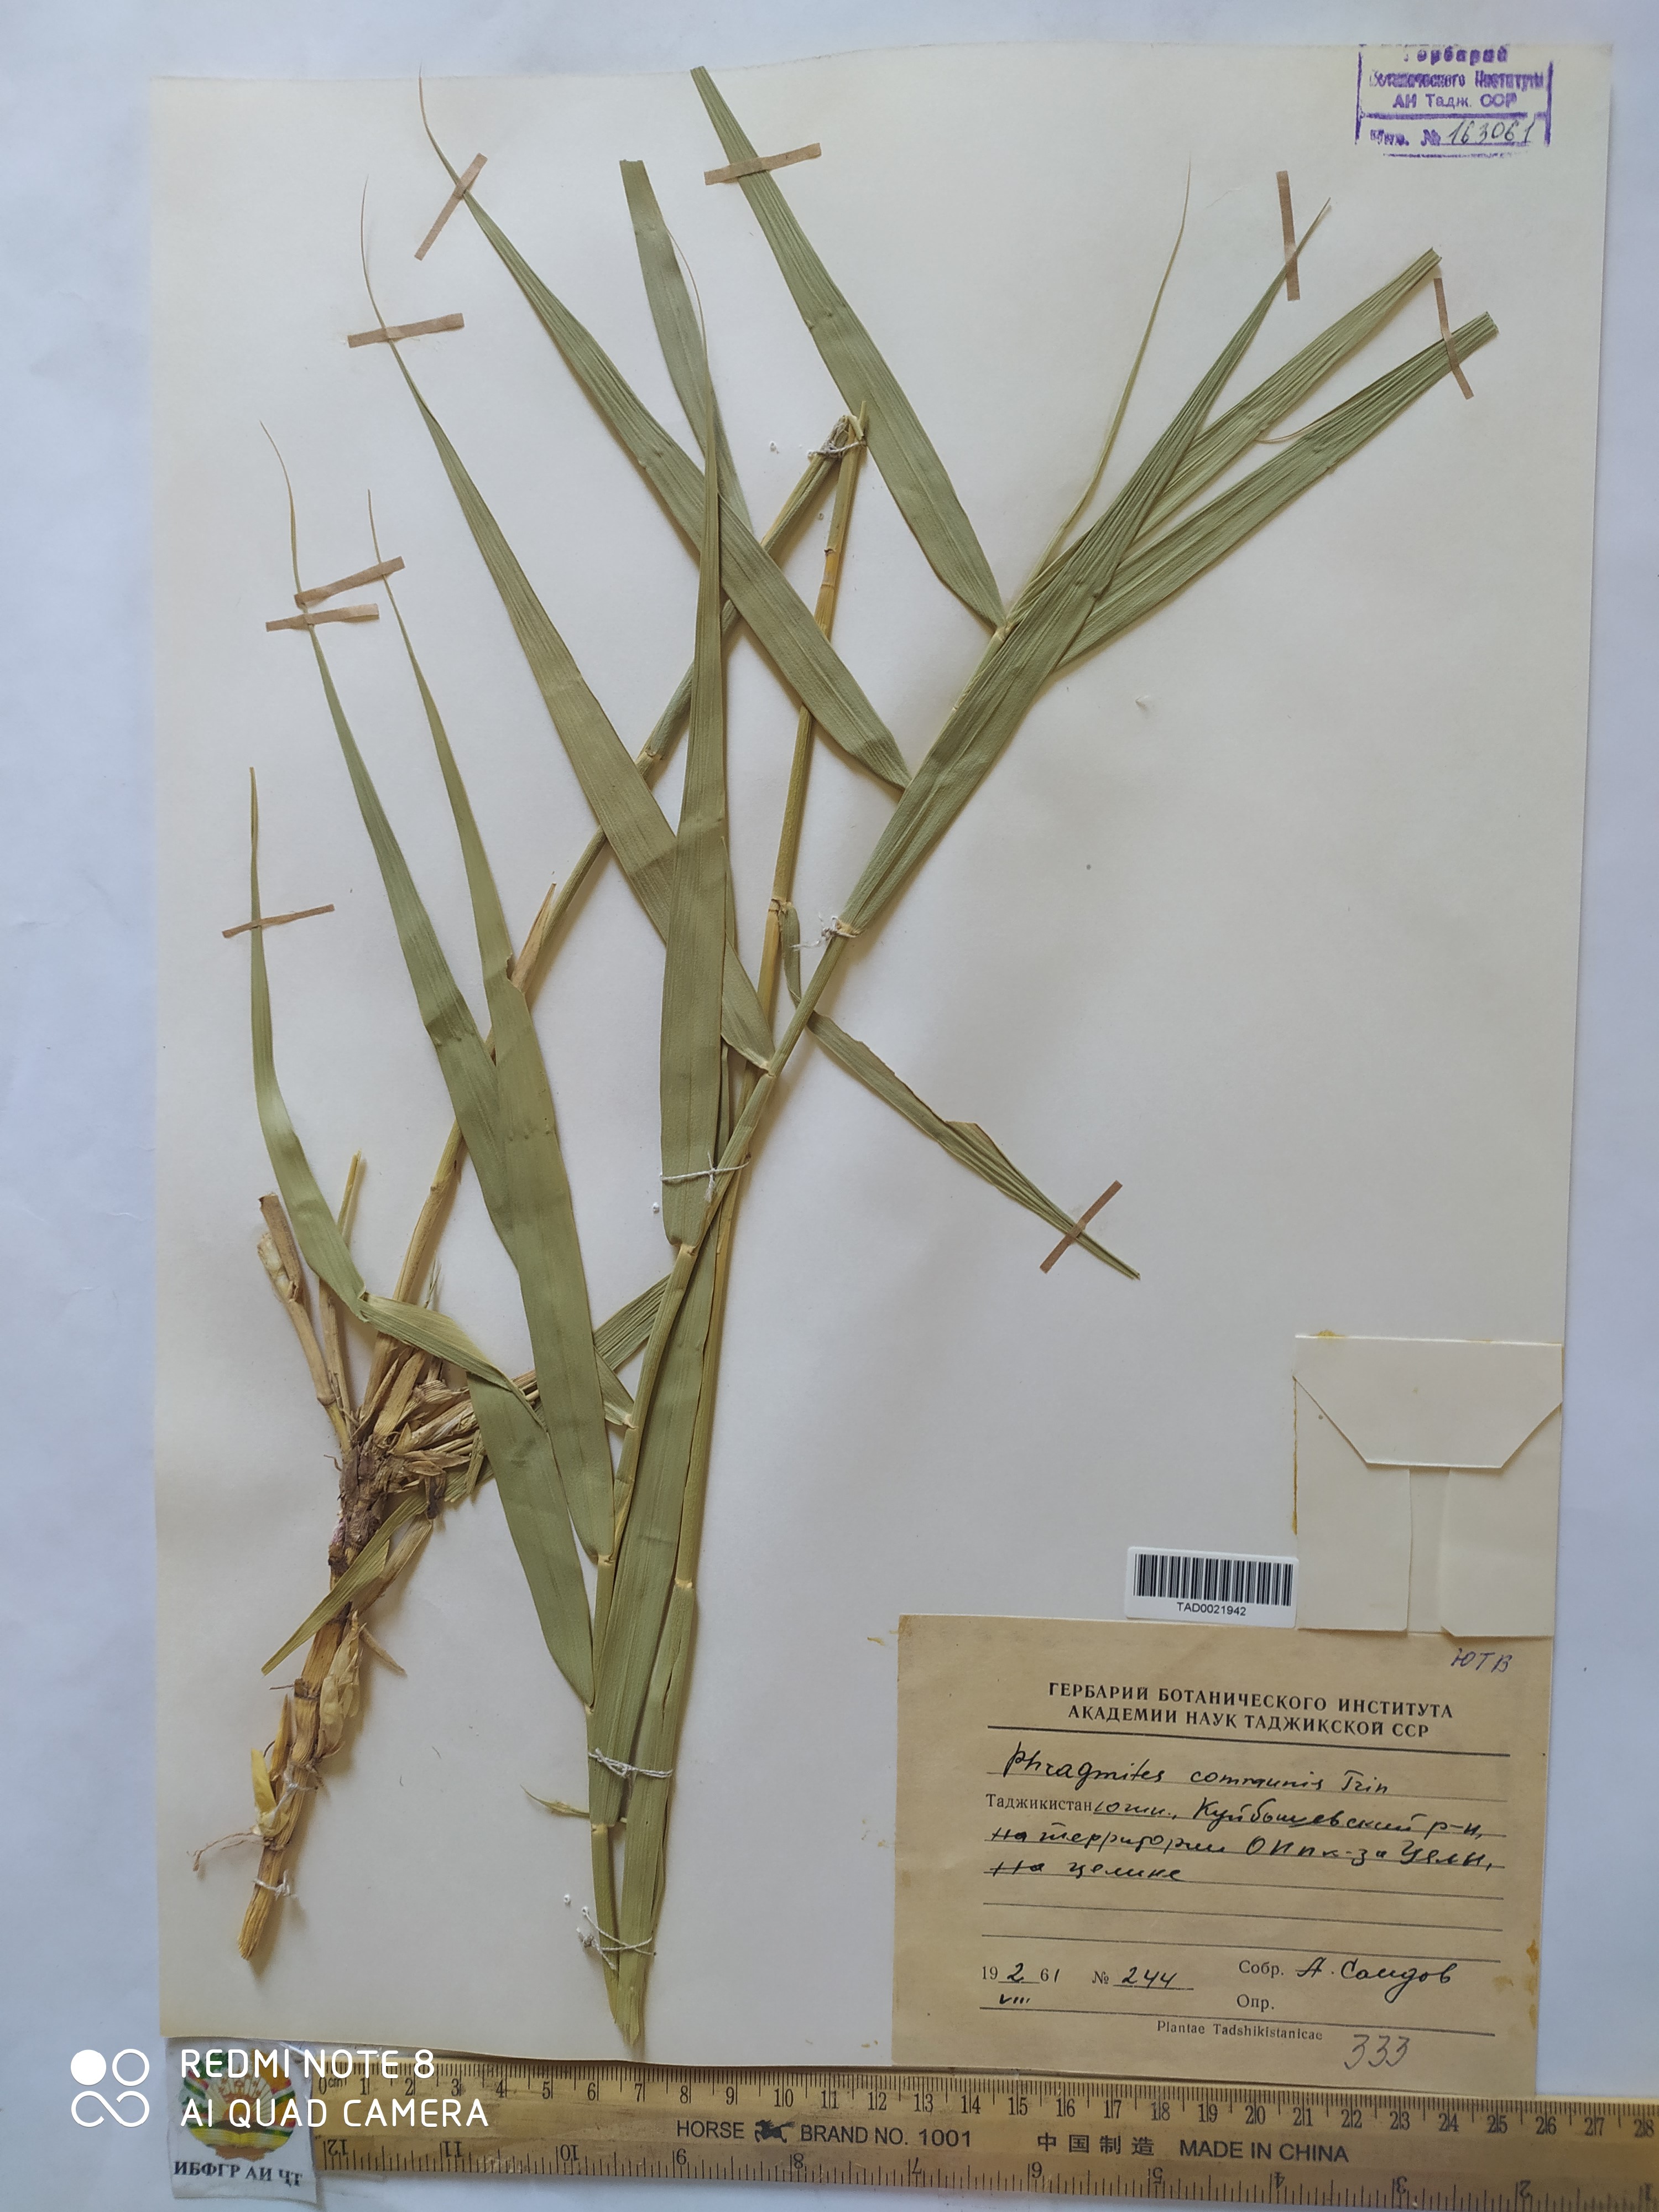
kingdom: Plantae
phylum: Tracheophyta
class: Liliopsida
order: Poales
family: Poaceae
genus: Phragmites
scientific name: Phragmites australis
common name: Common reed
